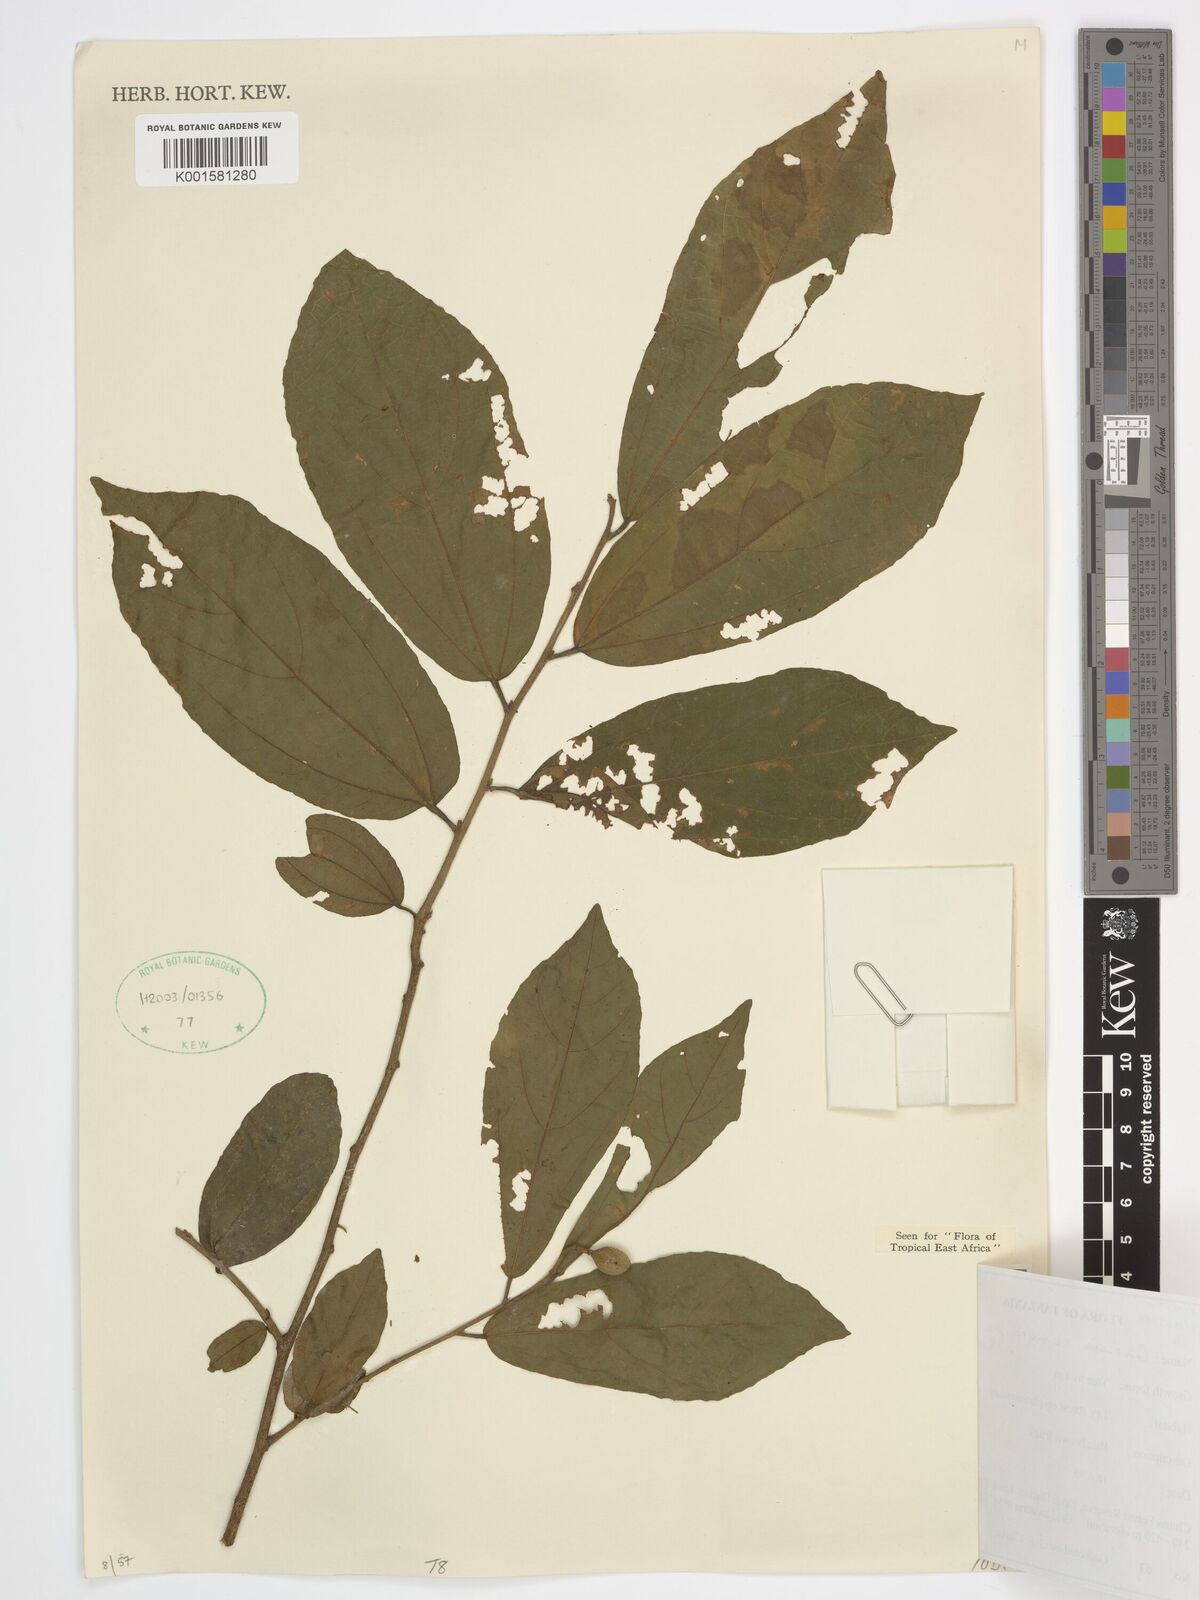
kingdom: Plantae
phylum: Tracheophyta
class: Magnoliopsida
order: Malvales
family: Malvaceae
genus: Microcos
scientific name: Microcos conocarpa
